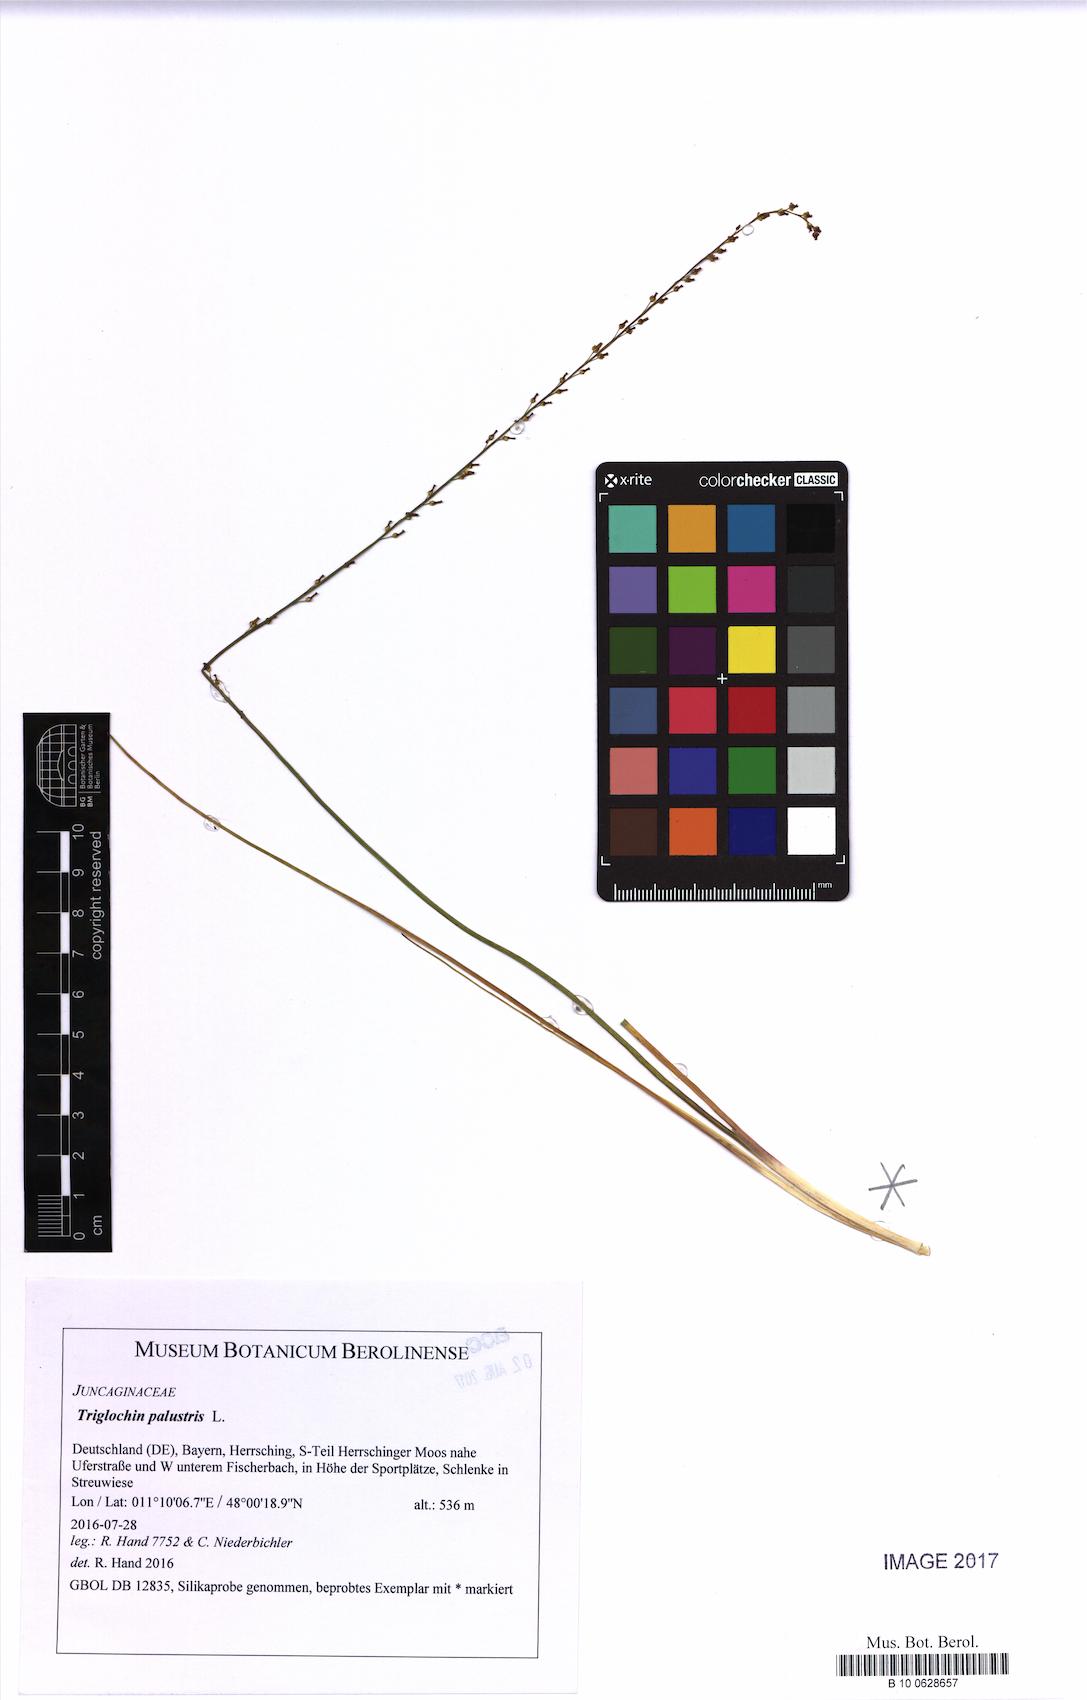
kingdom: Plantae
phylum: Tracheophyta
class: Liliopsida
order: Alismatales
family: Juncaginaceae
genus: Triglochin
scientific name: Triglochin palustris
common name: Marsh arrowgrass
